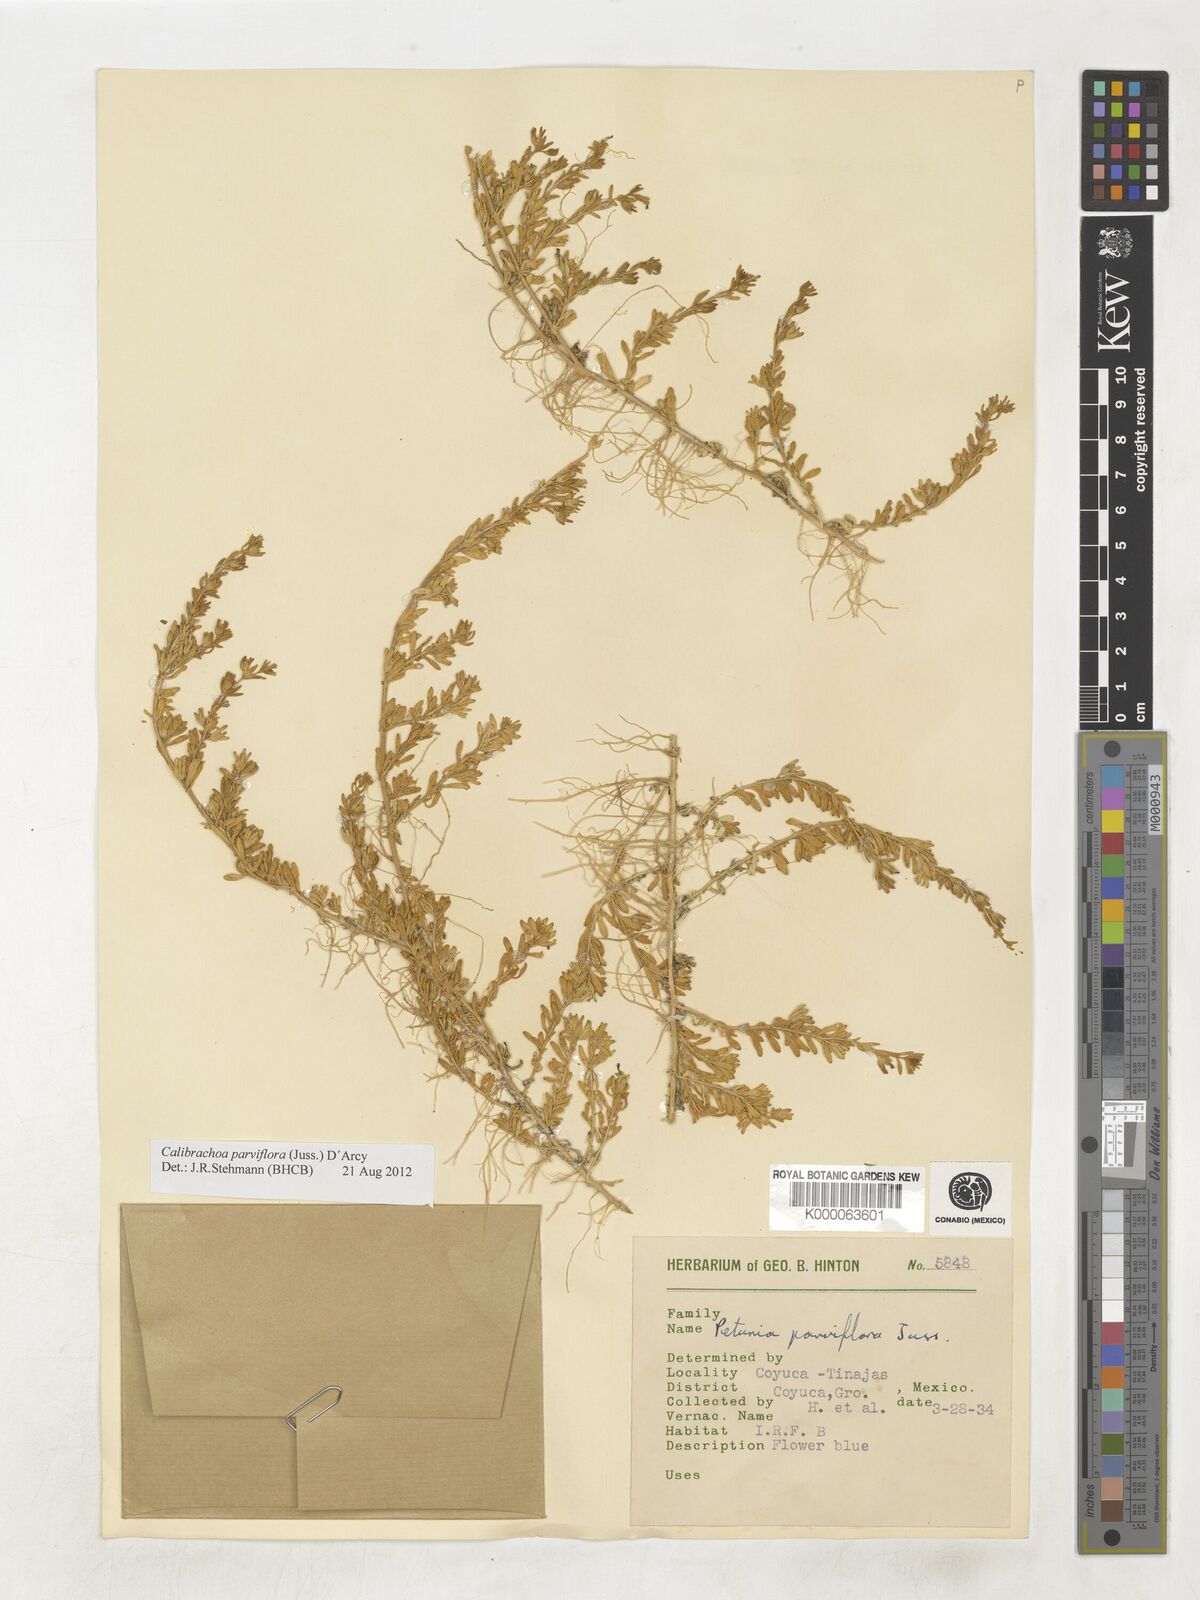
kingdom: Plantae
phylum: Tracheophyta
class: Magnoliopsida
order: Solanales
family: Solanaceae
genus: Calibrachoa
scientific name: Calibrachoa parviflora
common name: Seaside petunia
